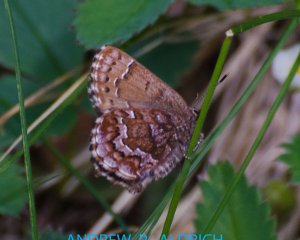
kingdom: Animalia
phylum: Arthropoda
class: Insecta
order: Lepidoptera
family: Lycaenidae
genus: Incisalia
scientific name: Incisalia niphon
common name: Eastern Pine Elfin
